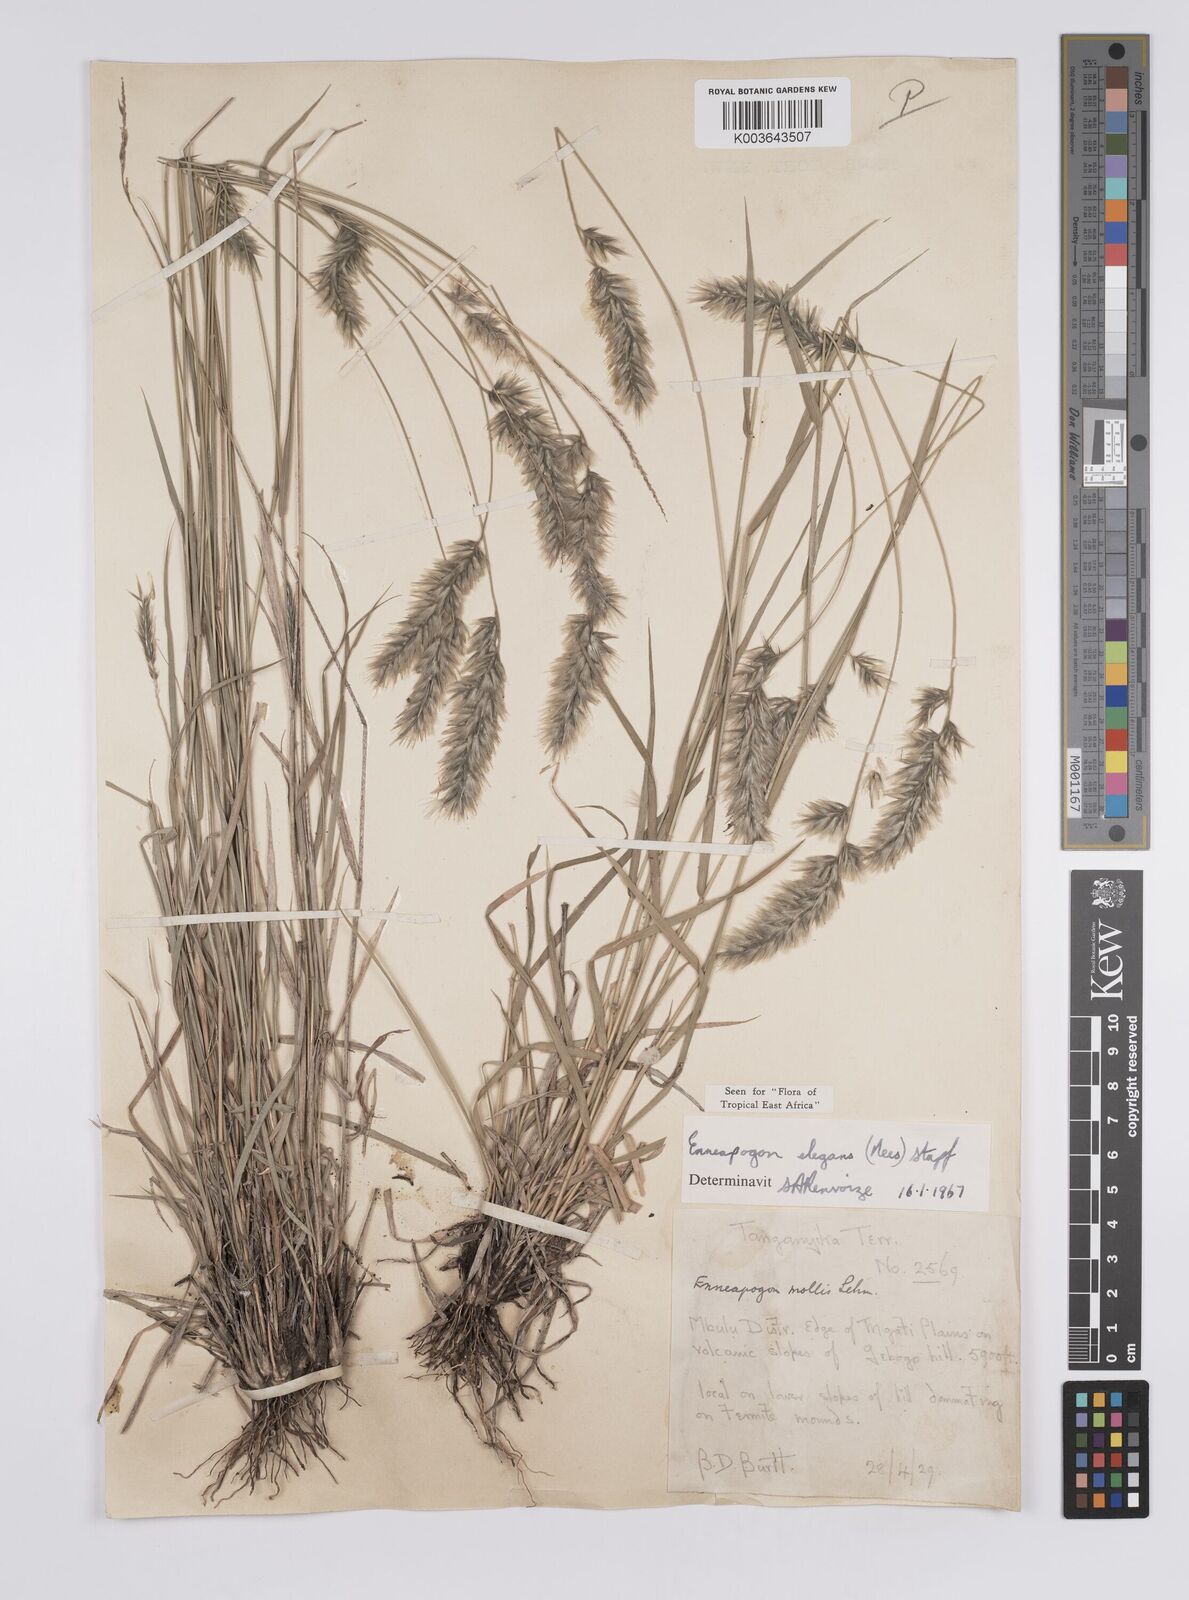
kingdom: Plantae
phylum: Tracheophyta
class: Liliopsida
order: Poales
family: Poaceae
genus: Enneapogon
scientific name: Enneapogon persicus
